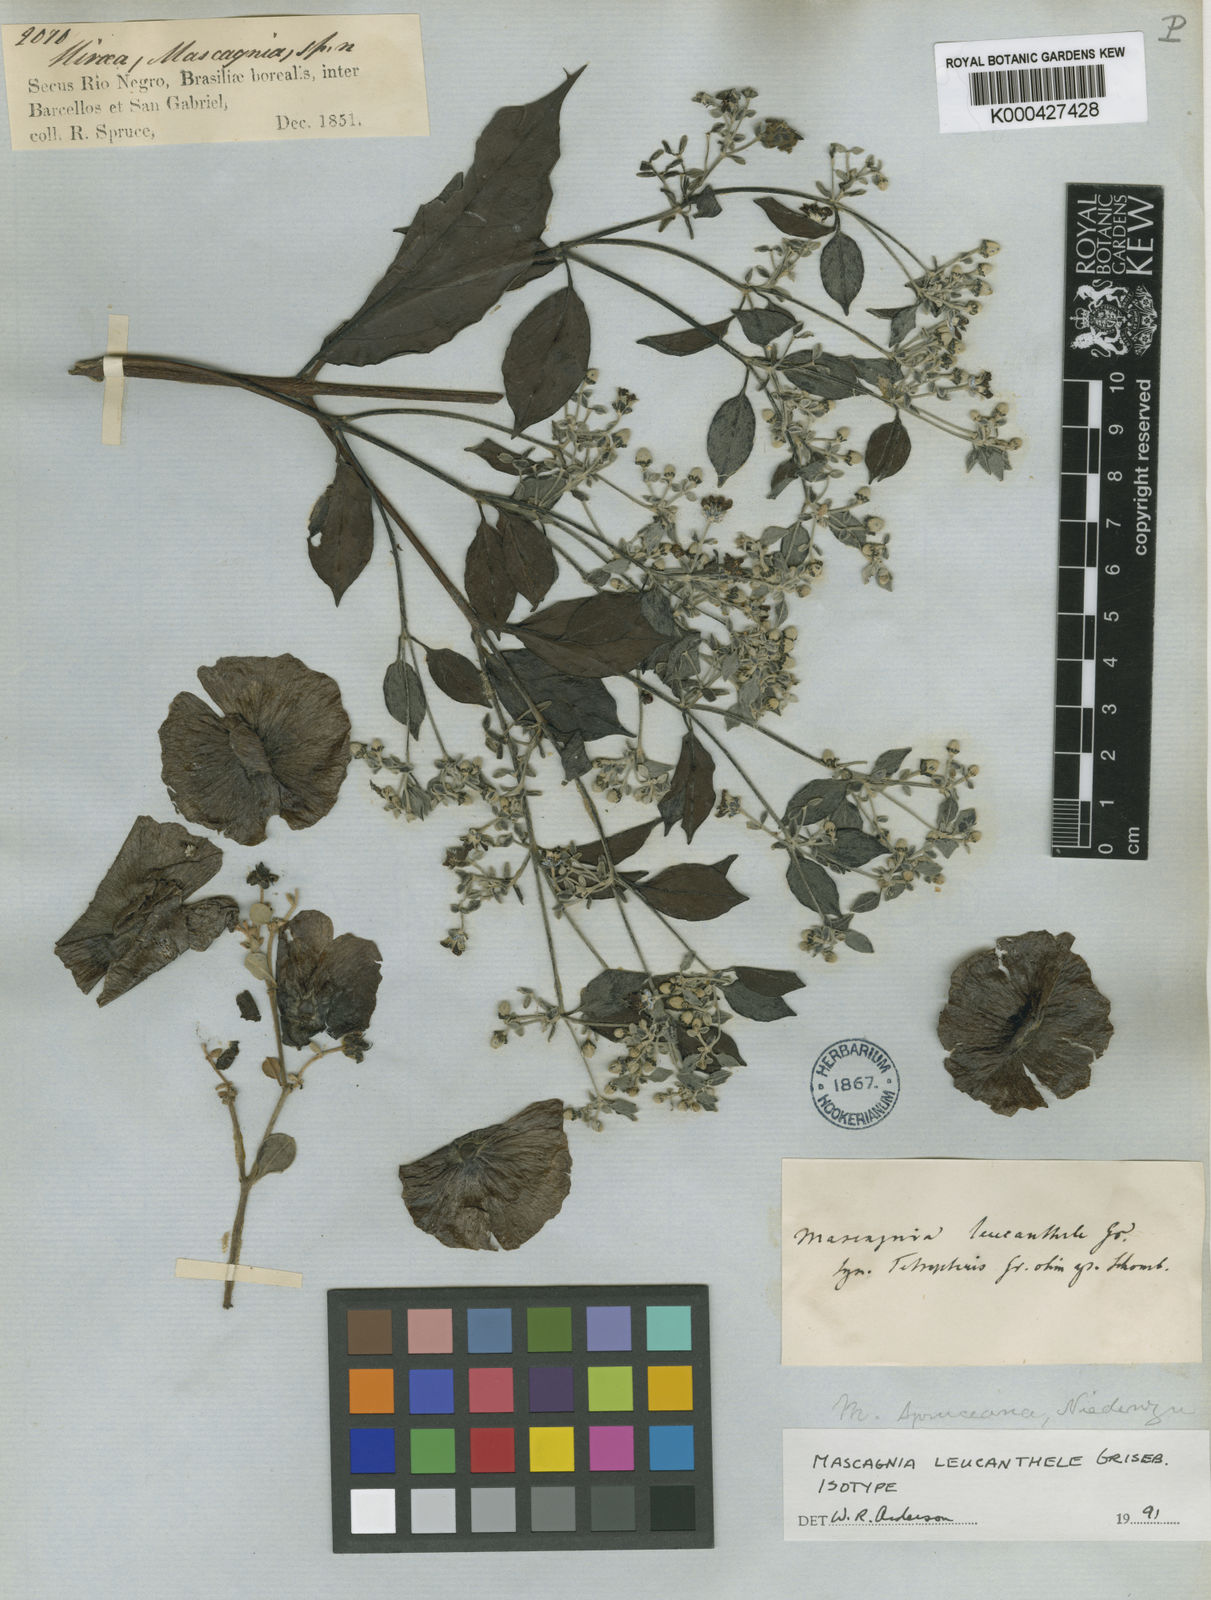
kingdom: Plantae
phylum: Tracheophyta
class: Magnoliopsida
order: Malpighiales
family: Malpighiaceae
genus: Malpighiodes
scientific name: Malpighiodes leucanthele
